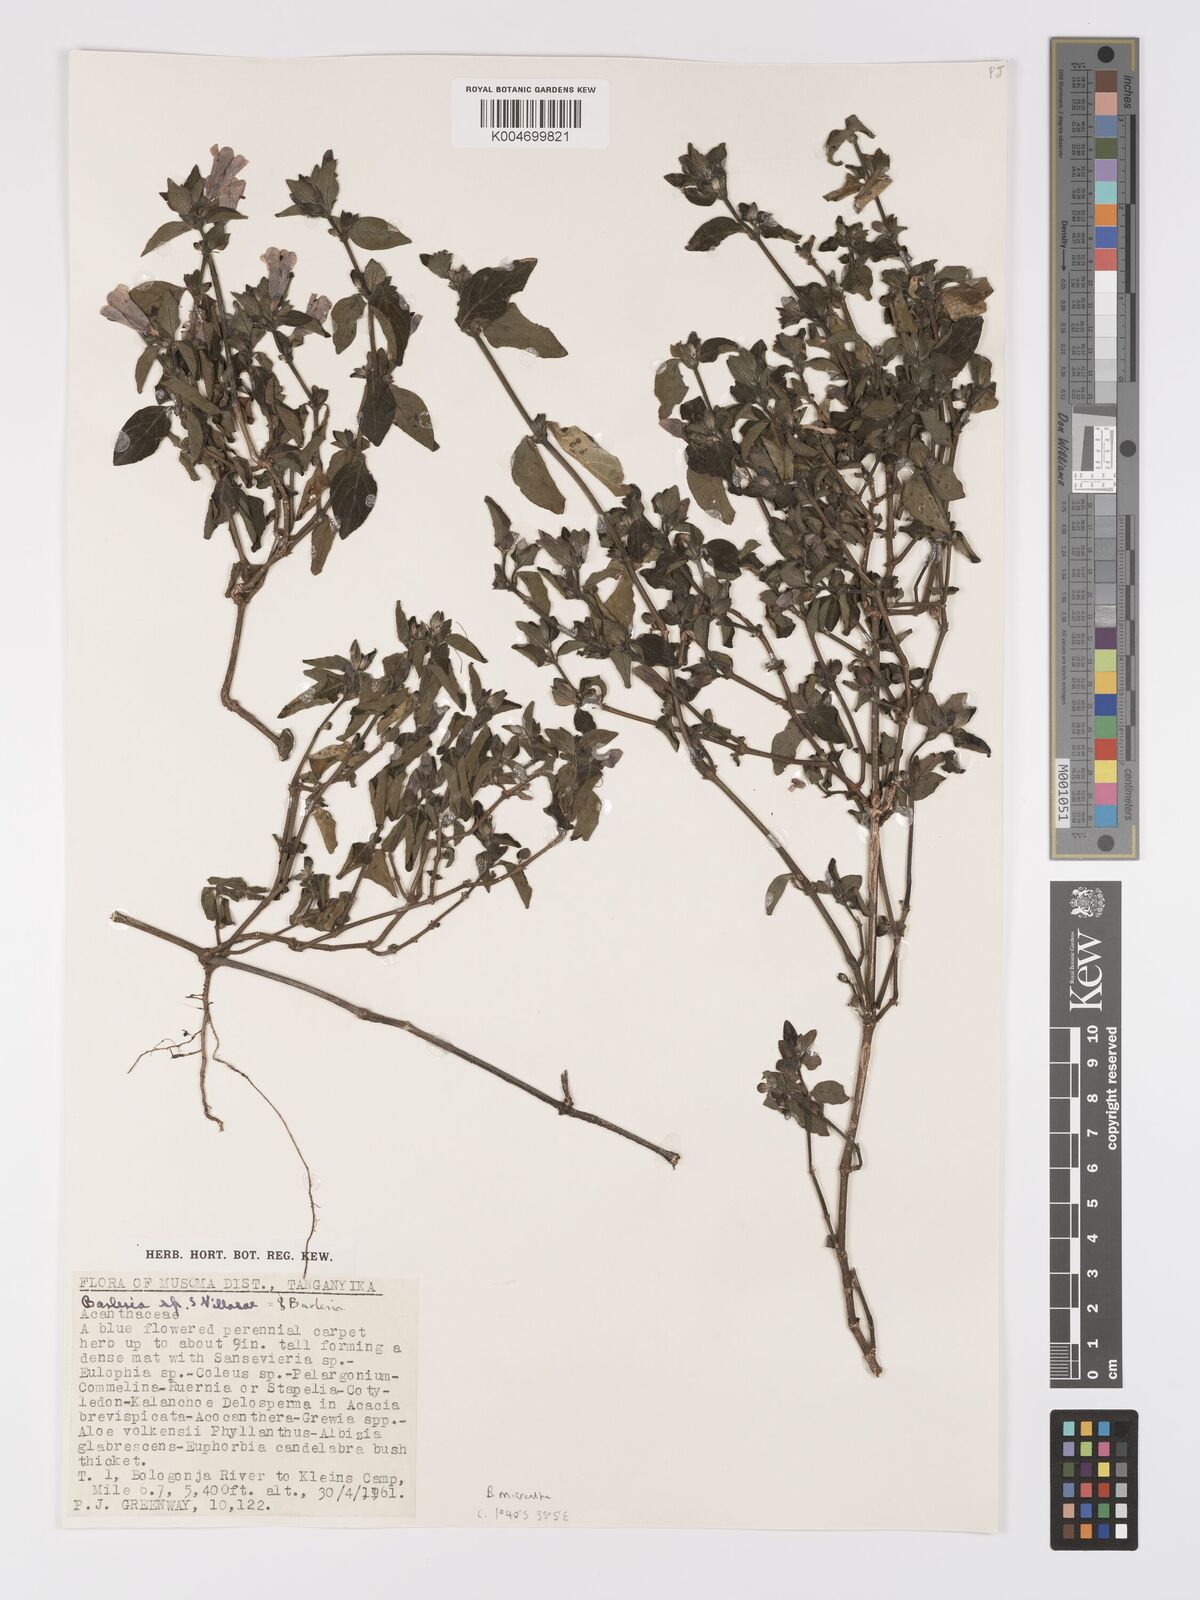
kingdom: Plantae
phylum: Tracheophyta
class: Magnoliopsida
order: Lamiales
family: Acanthaceae
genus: Barleria
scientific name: Barleria ventricosa
